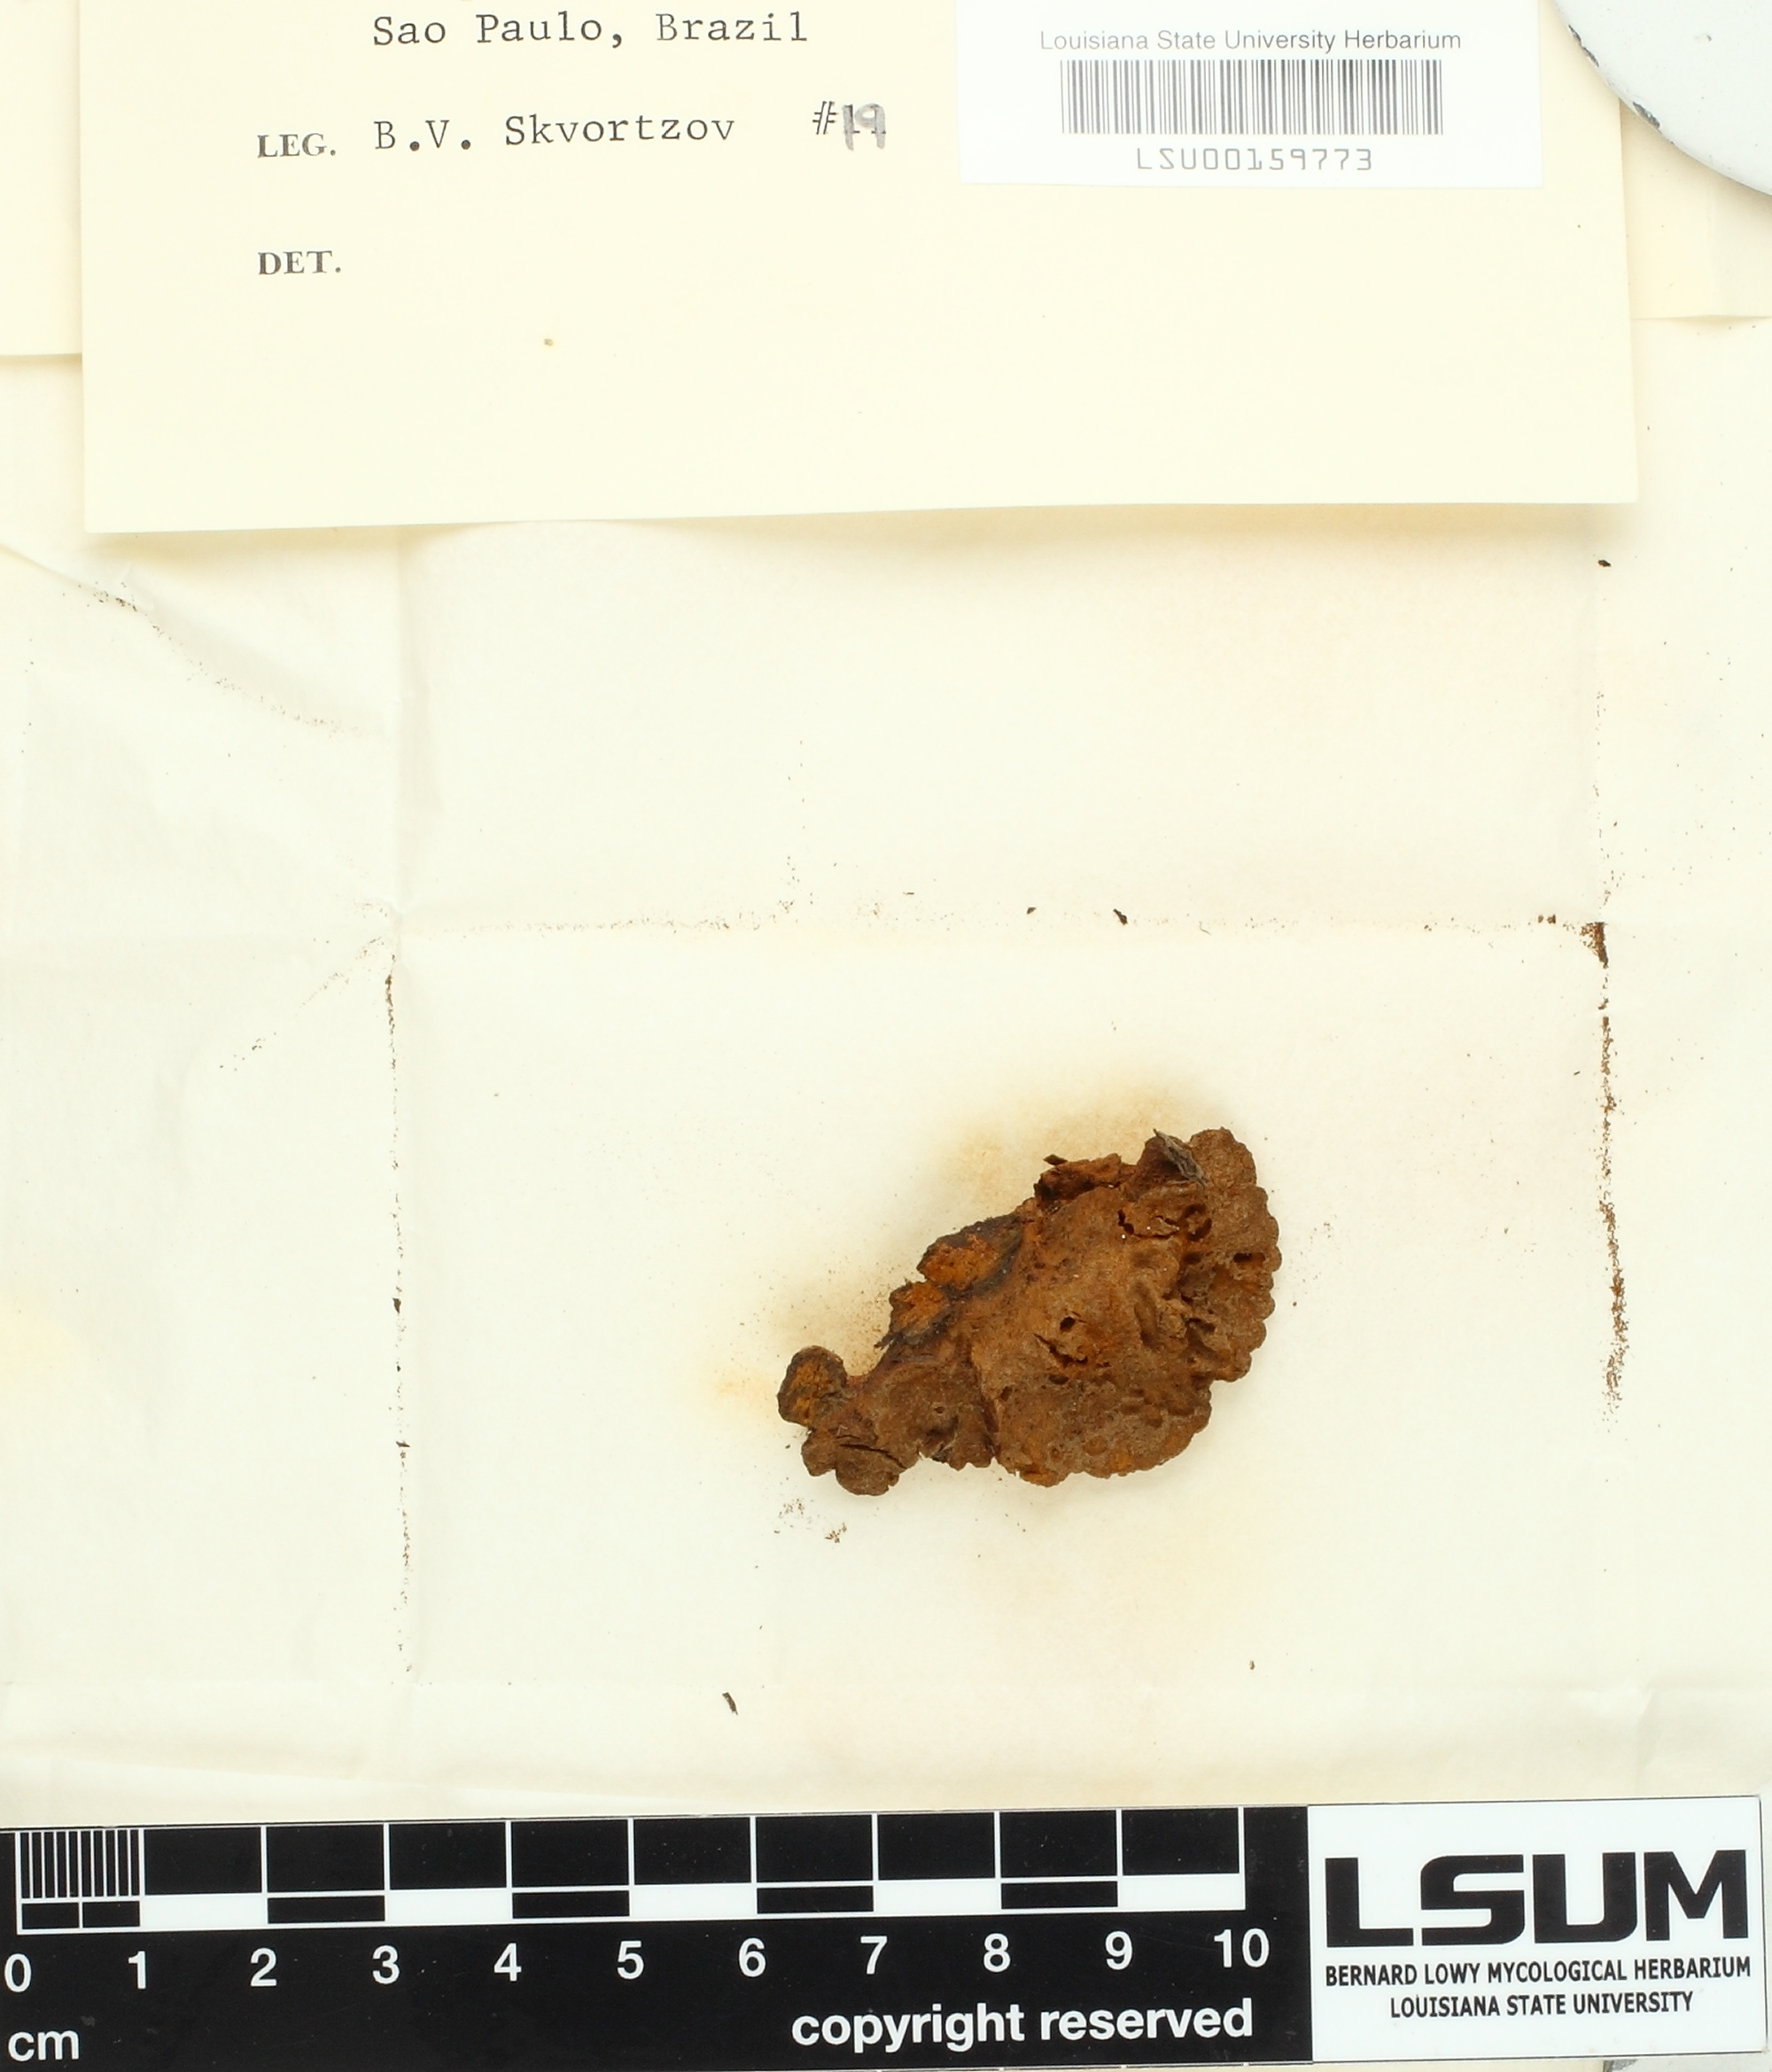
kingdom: Fungi
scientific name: Fungi
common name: Fungi
